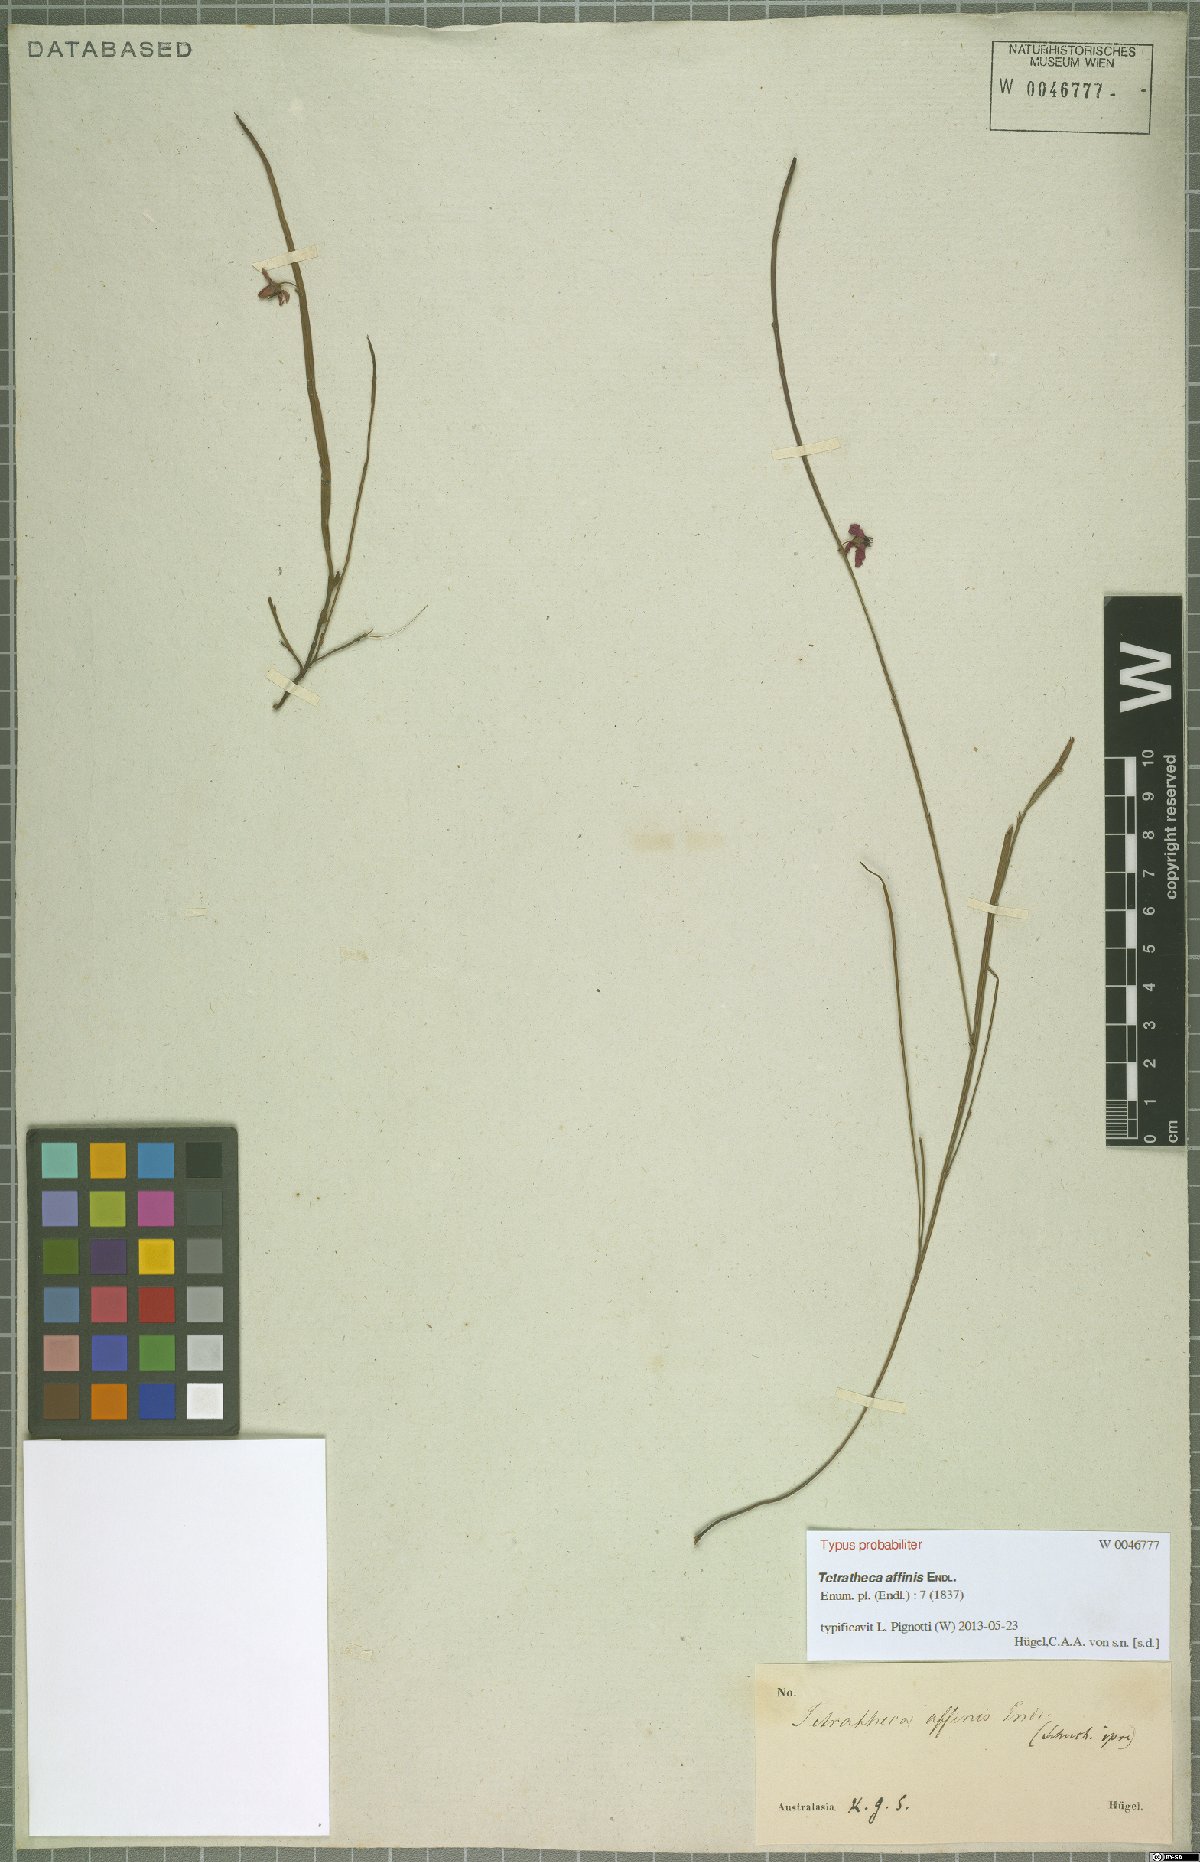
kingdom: Plantae
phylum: Tracheophyta
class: Magnoliopsida
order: Oxalidales
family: Elaeocarpaceae
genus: Tetratheca
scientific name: Tetratheca affinis
